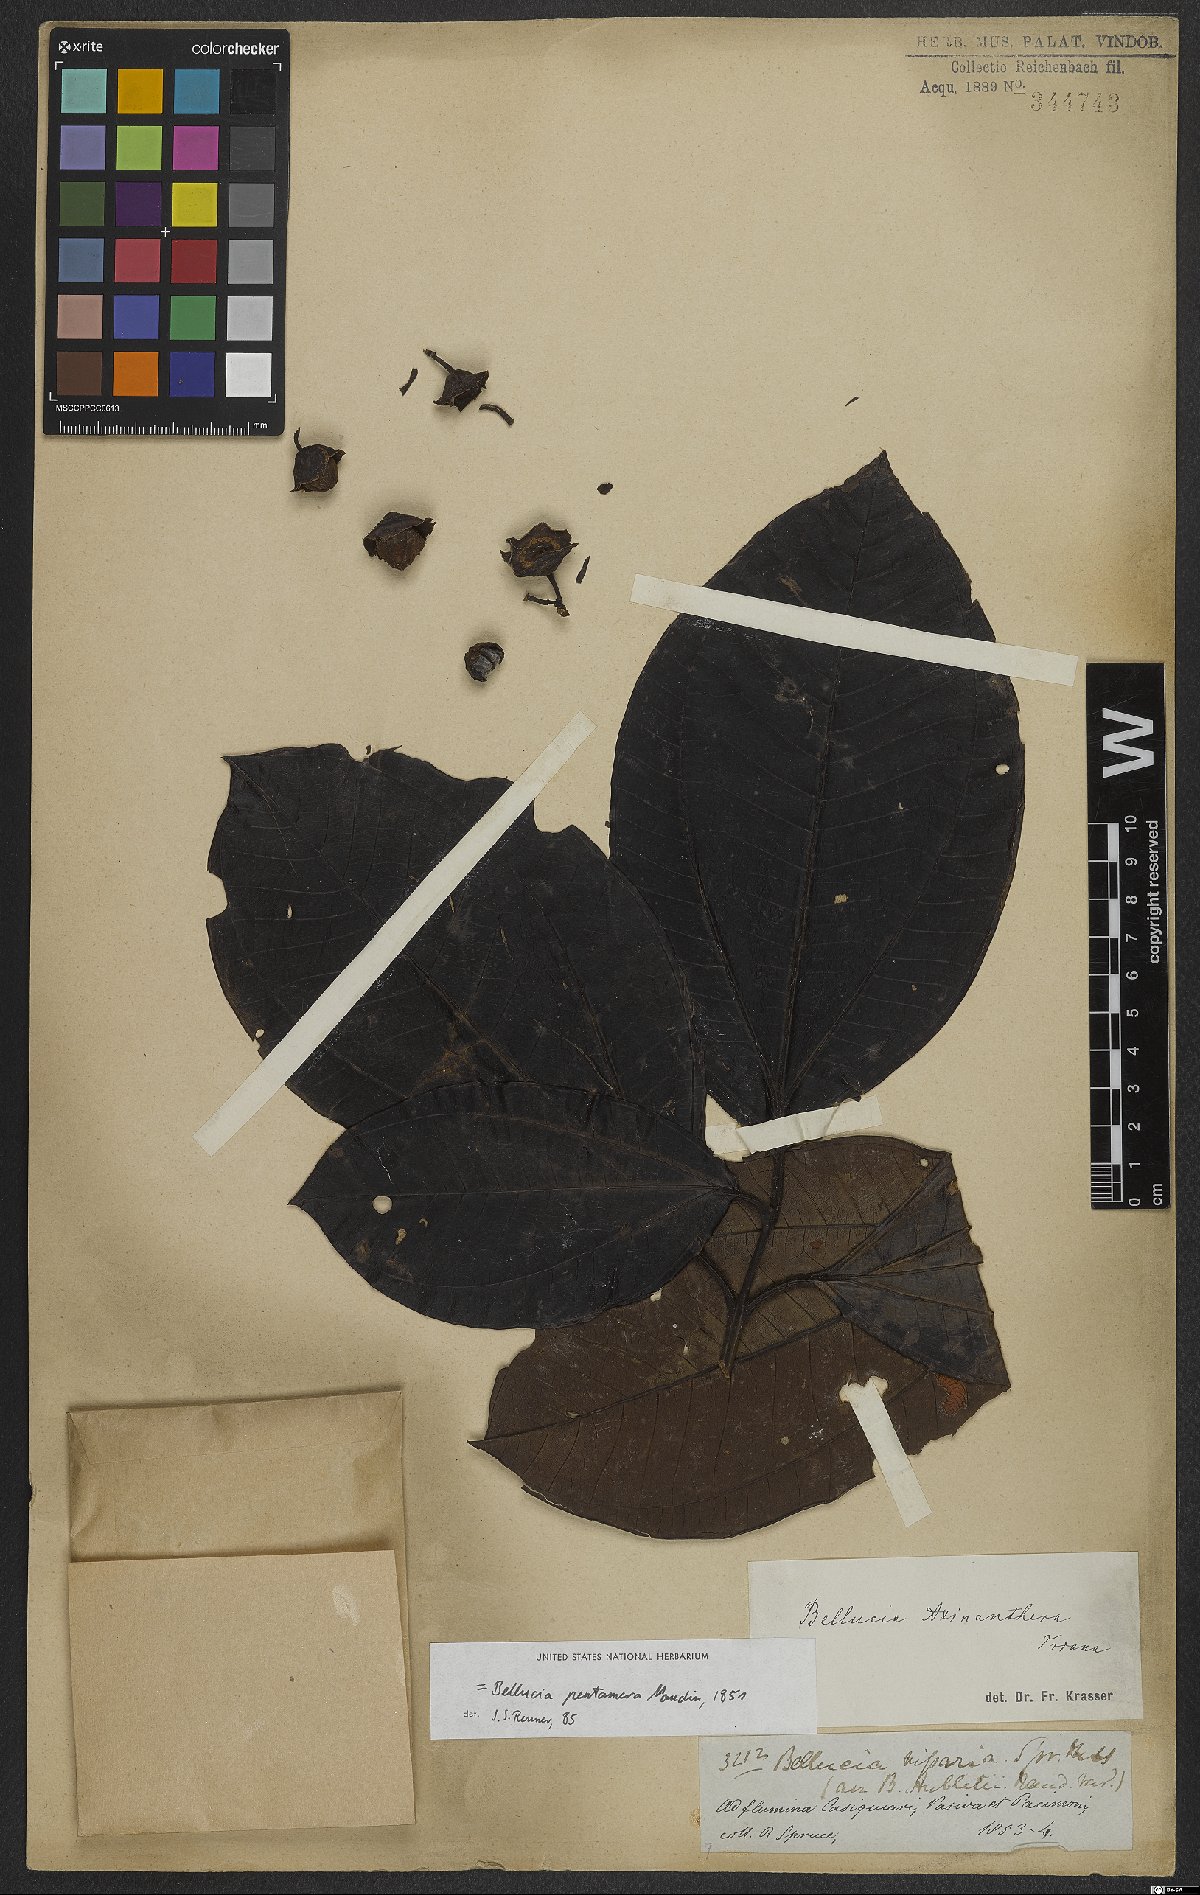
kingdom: Plantae
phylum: Tracheophyta
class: Magnoliopsida
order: Myrtales
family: Melastomataceae
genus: Bellucia
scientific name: Bellucia pentamera
